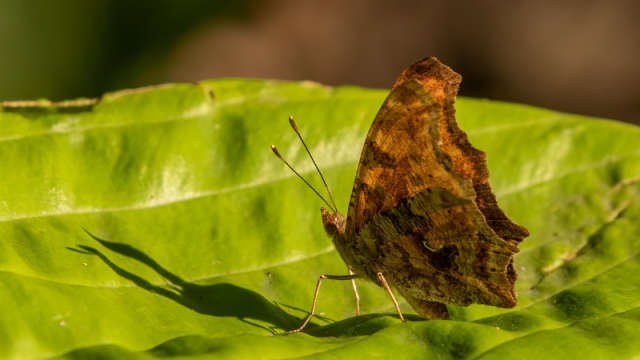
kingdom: Animalia
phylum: Arthropoda
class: Insecta
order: Lepidoptera
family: Nymphalidae
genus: Polygonia
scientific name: Polygonia comma
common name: Eastern Comma
